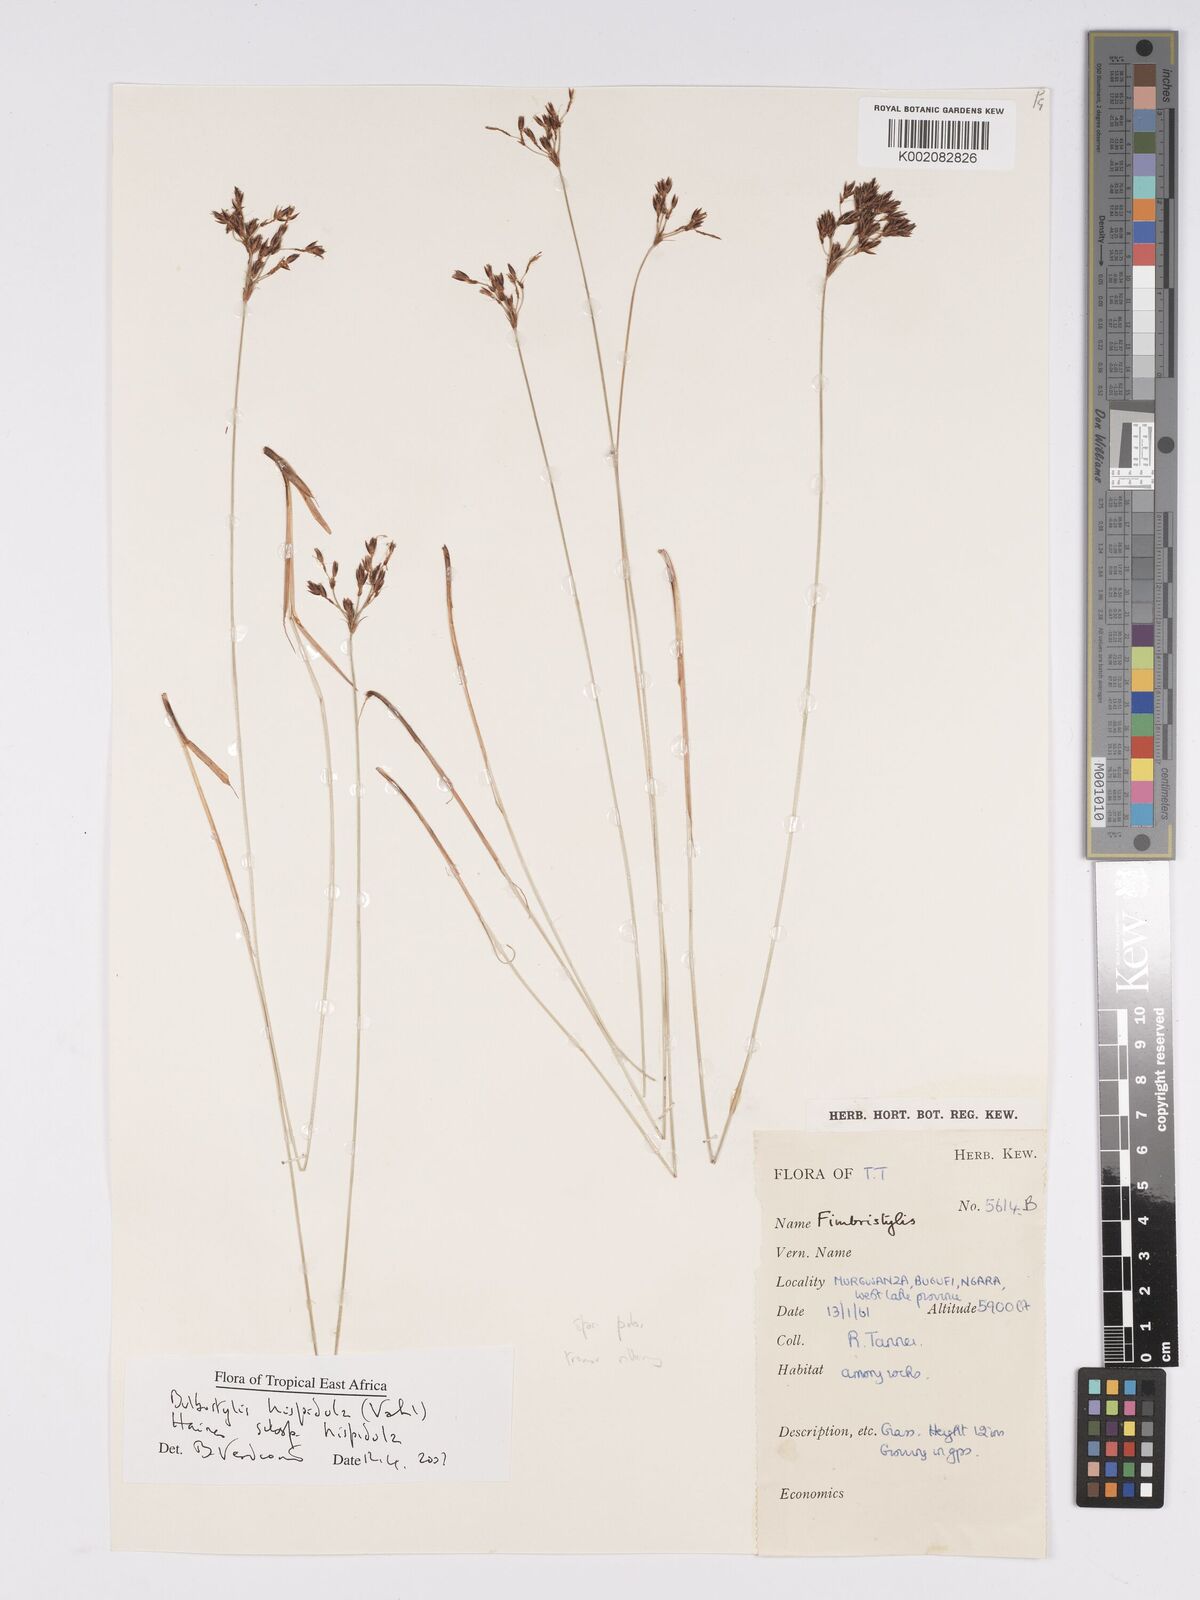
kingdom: Plantae
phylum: Tracheophyta
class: Liliopsida
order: Poales
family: Cyperaceae
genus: Bulbostylis
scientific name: Bulbostylis hispidula
